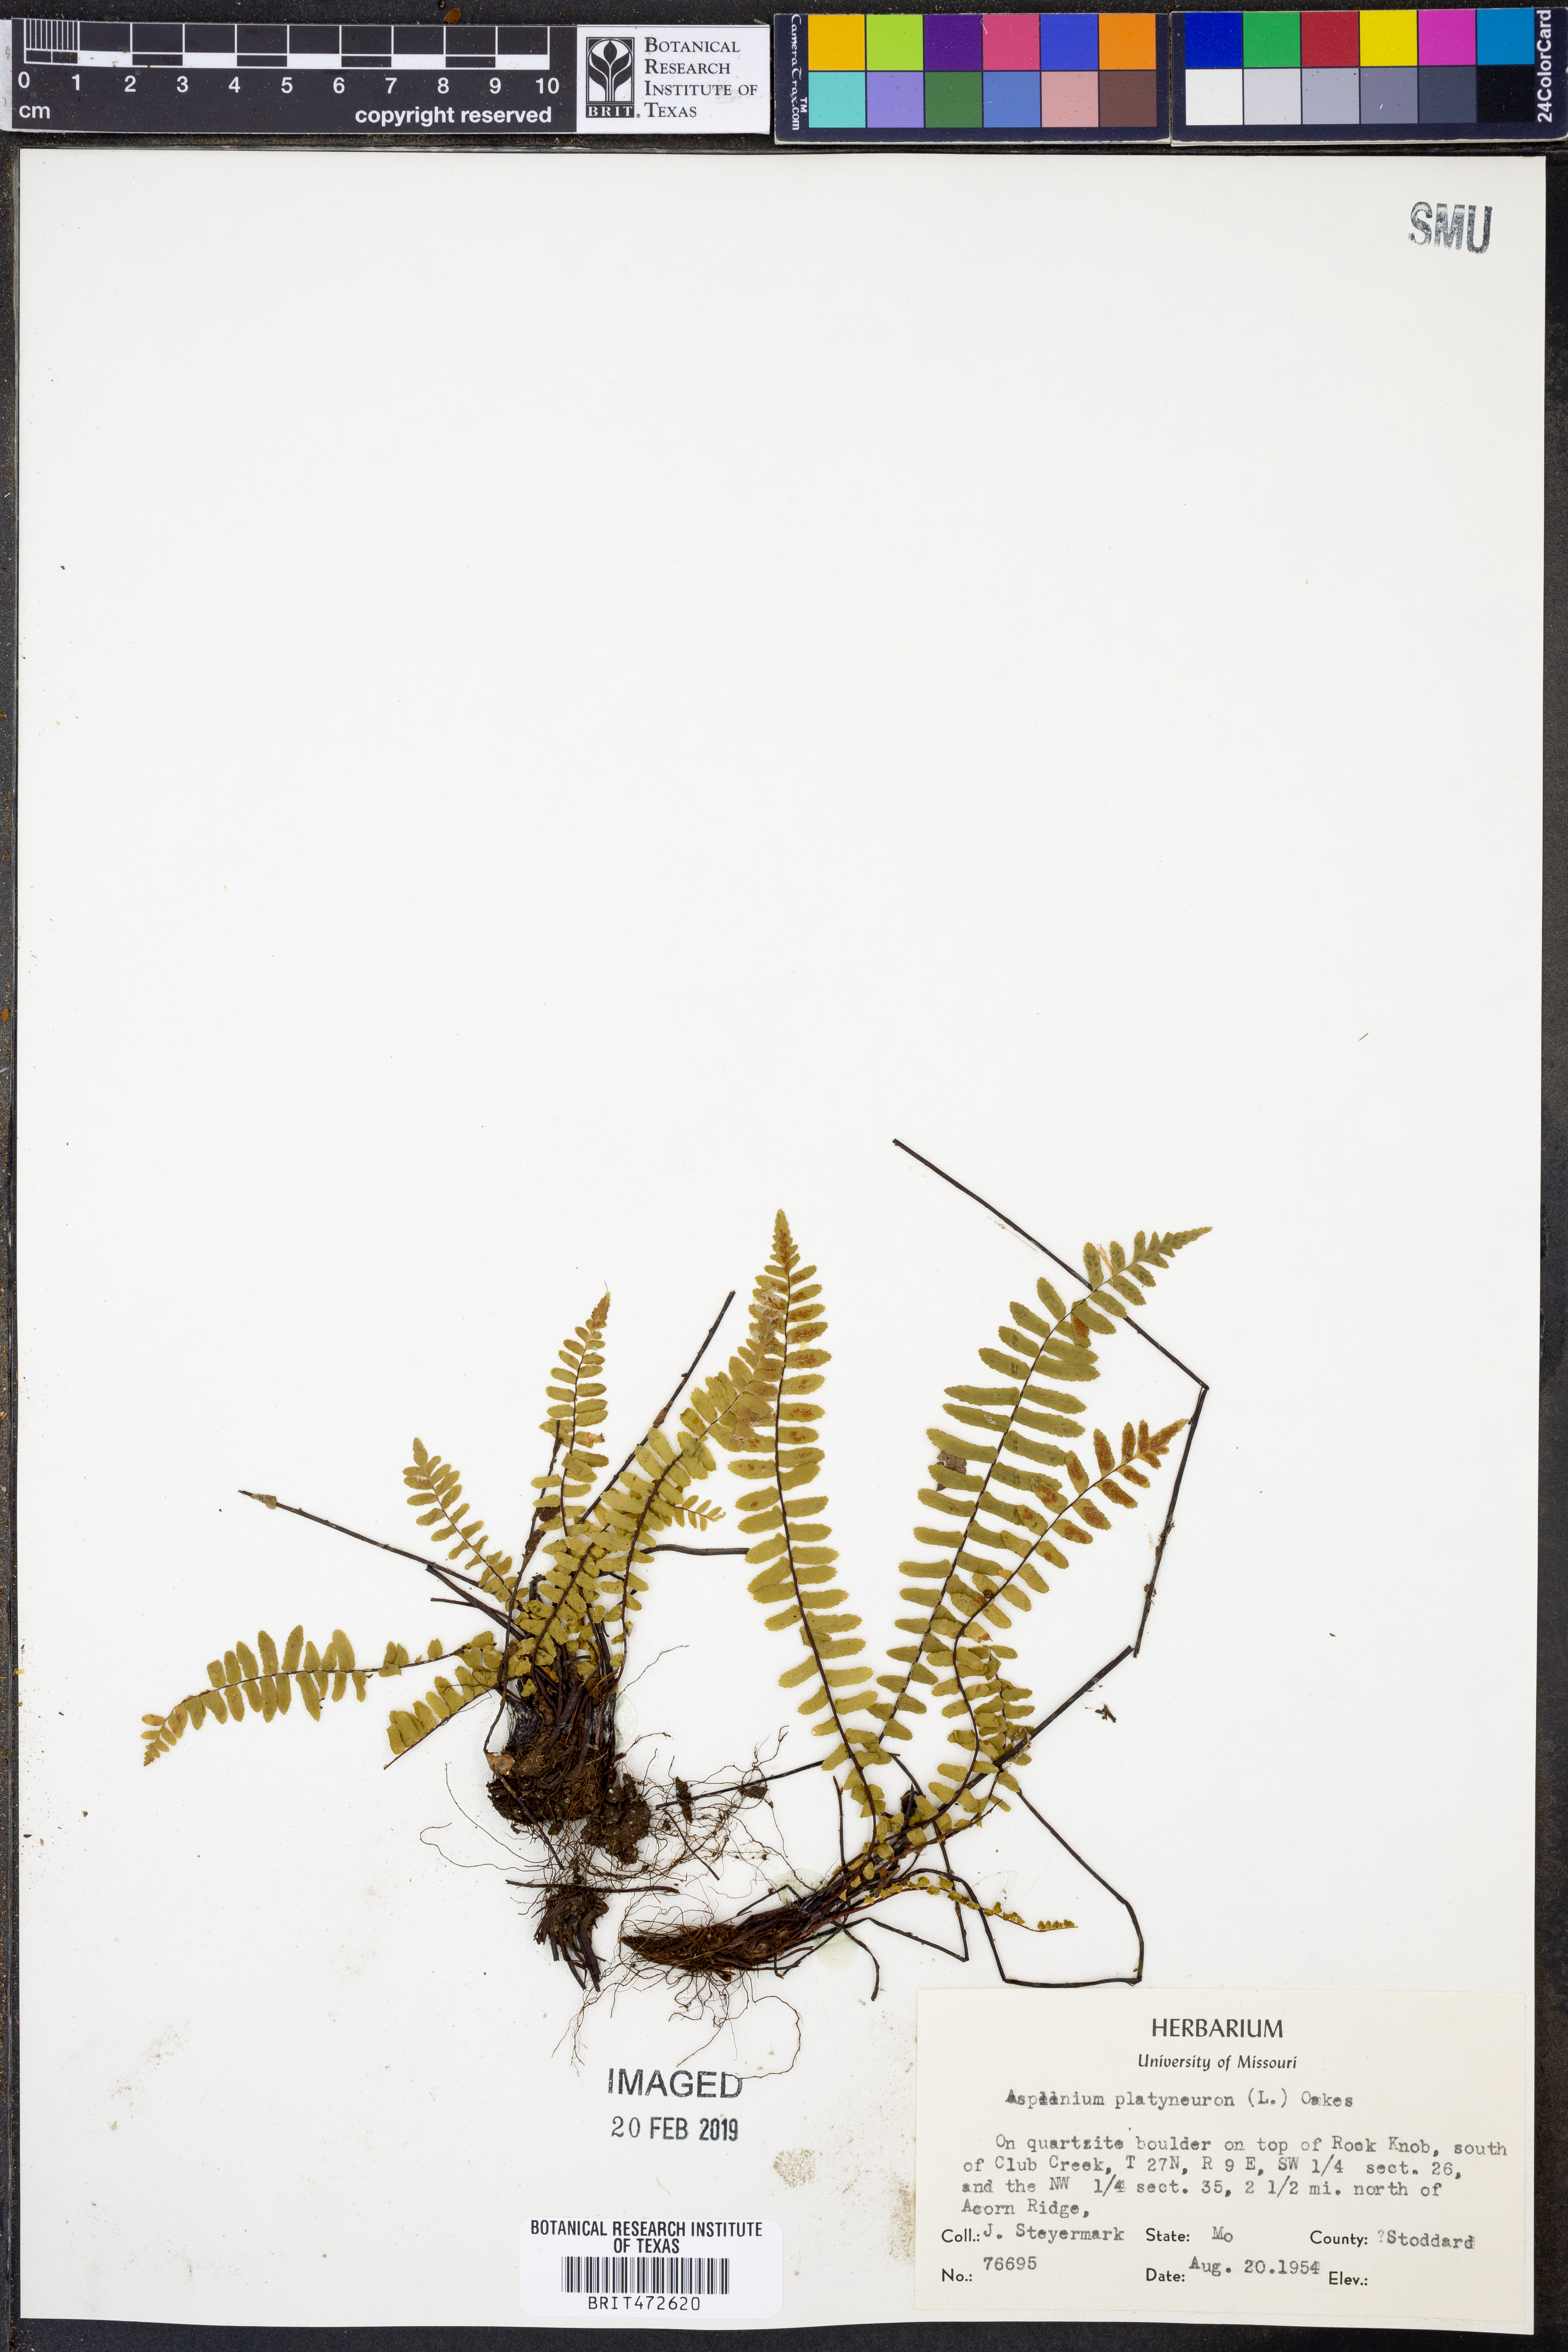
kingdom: Plantae
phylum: Tracheophyta
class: Polypodiopsida
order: Polypodiales
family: Aspleniaceae
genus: Asplenium
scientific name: Asplenium platyneuron
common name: Ebony spleenwort
